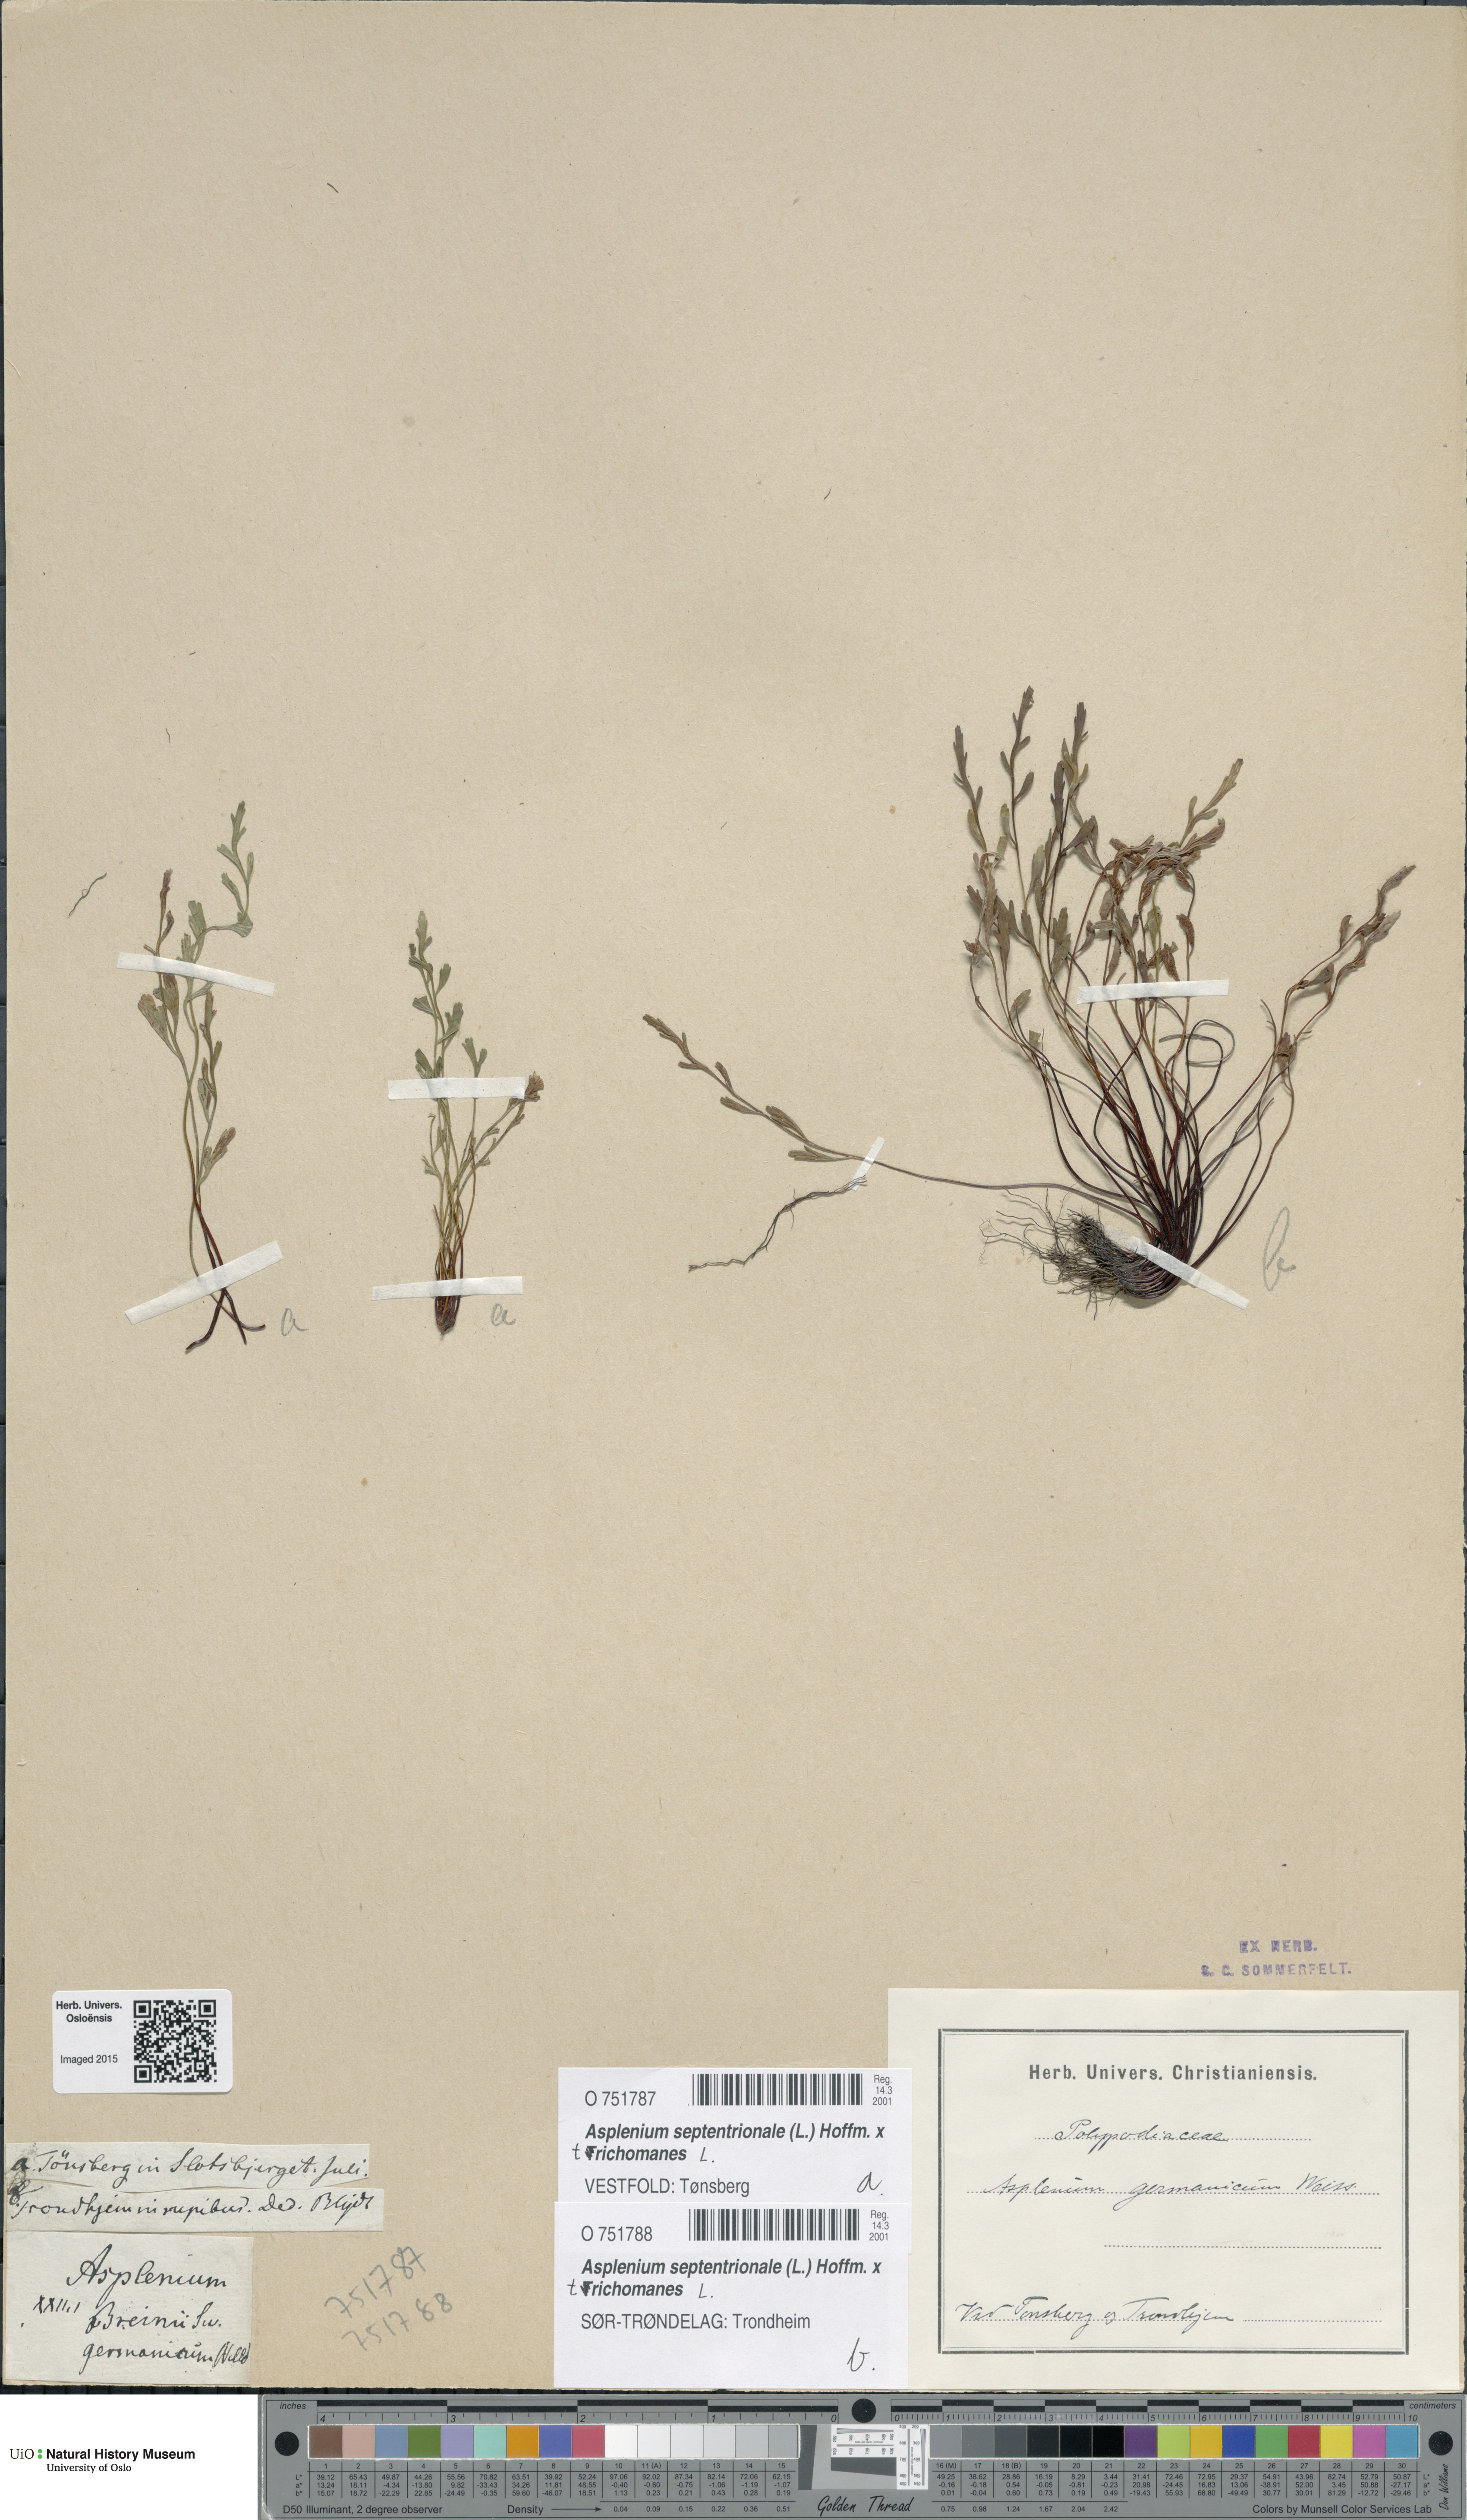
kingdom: Plantae
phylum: Tracheophyta
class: Polypodiopsida
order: Polypodiales
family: Aspleniaceae
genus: Asplenium
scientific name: Asplenium
